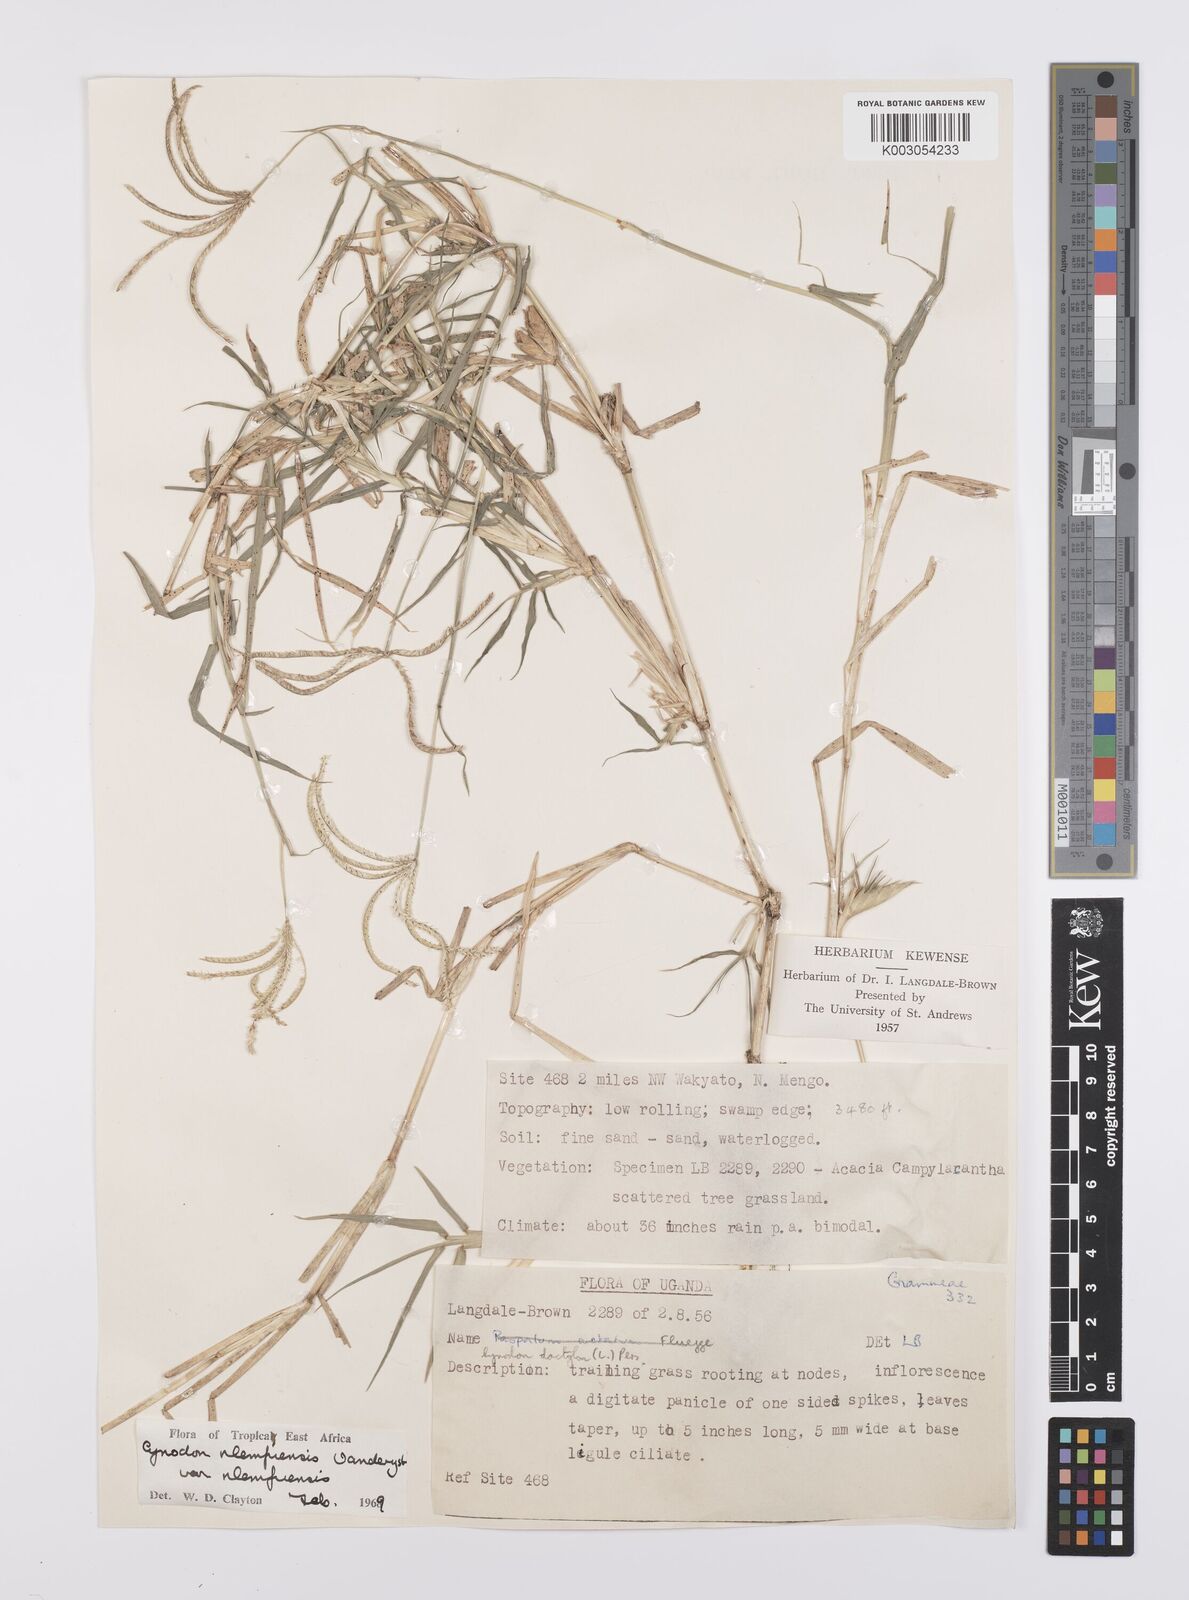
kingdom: Plantae
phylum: Tracheophyta
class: Liliopsida
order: Poales
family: Poaceae
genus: Cynodon
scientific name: Cynodon nlemfuensis
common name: African bermudagrass
